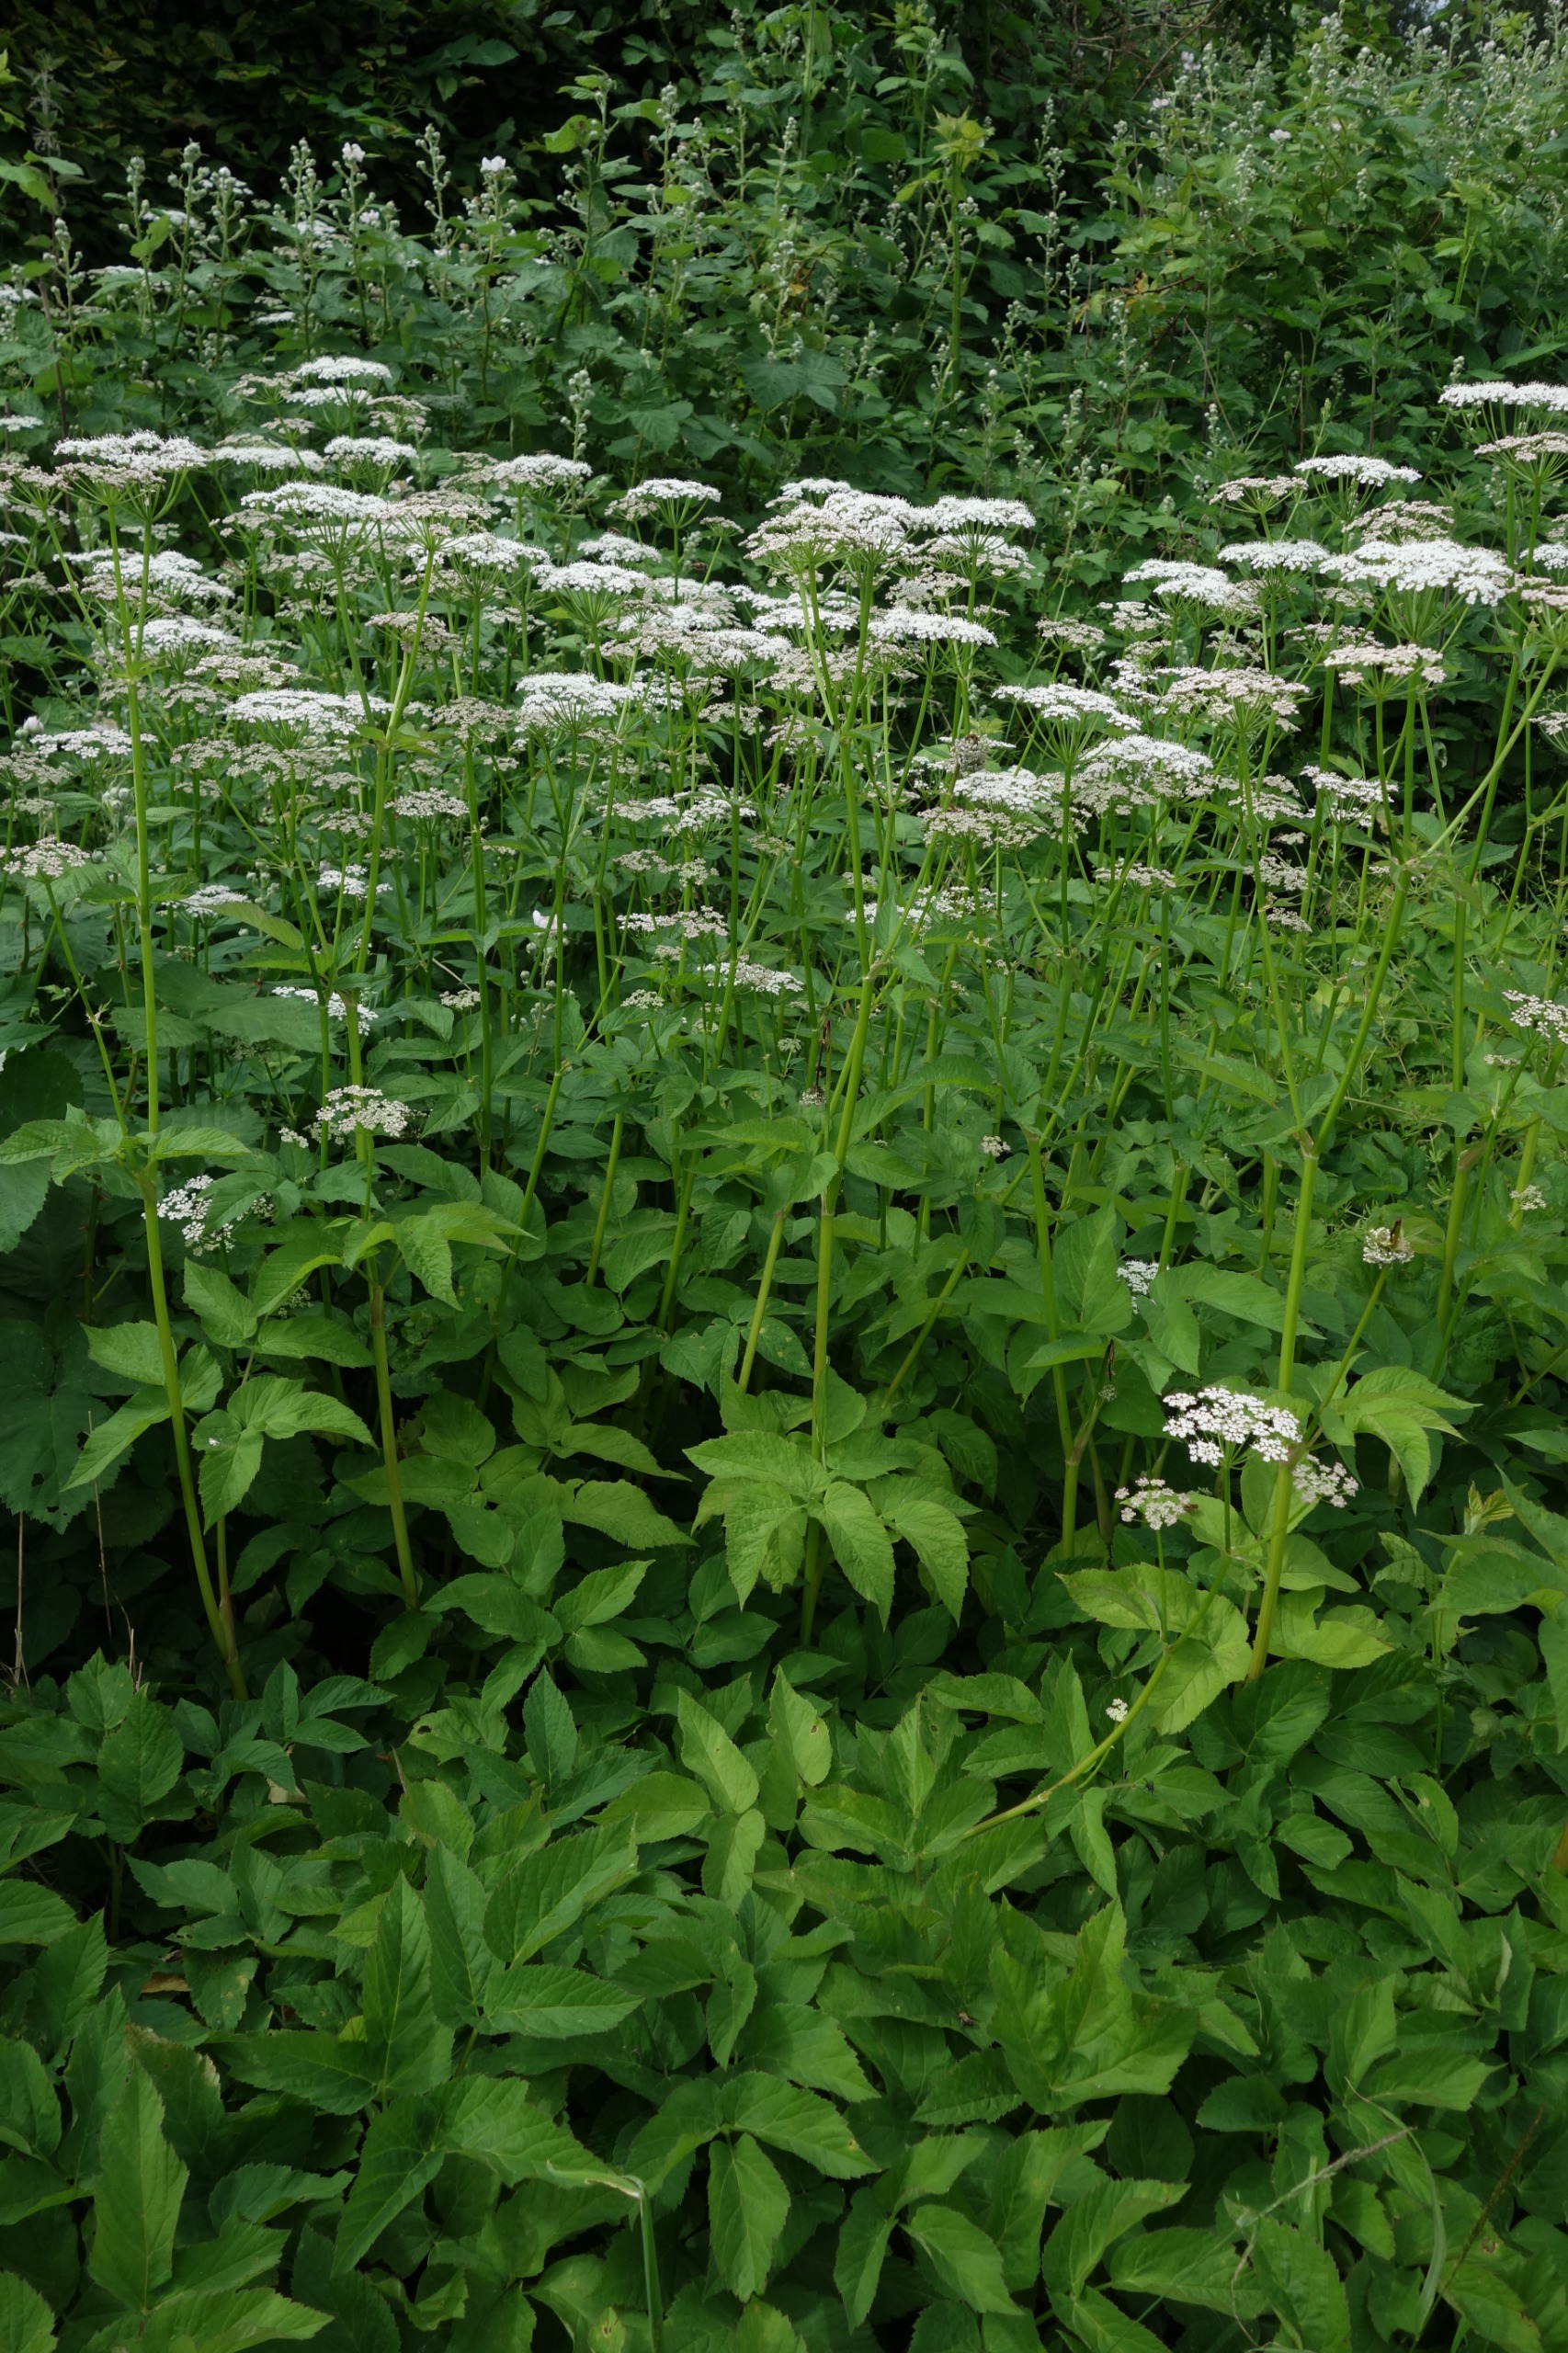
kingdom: Plantae
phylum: Tracheophyta
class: Magnoliopsida
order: Apiales
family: Apiaceae
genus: Aegopodium
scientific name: Aegopodium podagraria
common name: Skvalderkål
